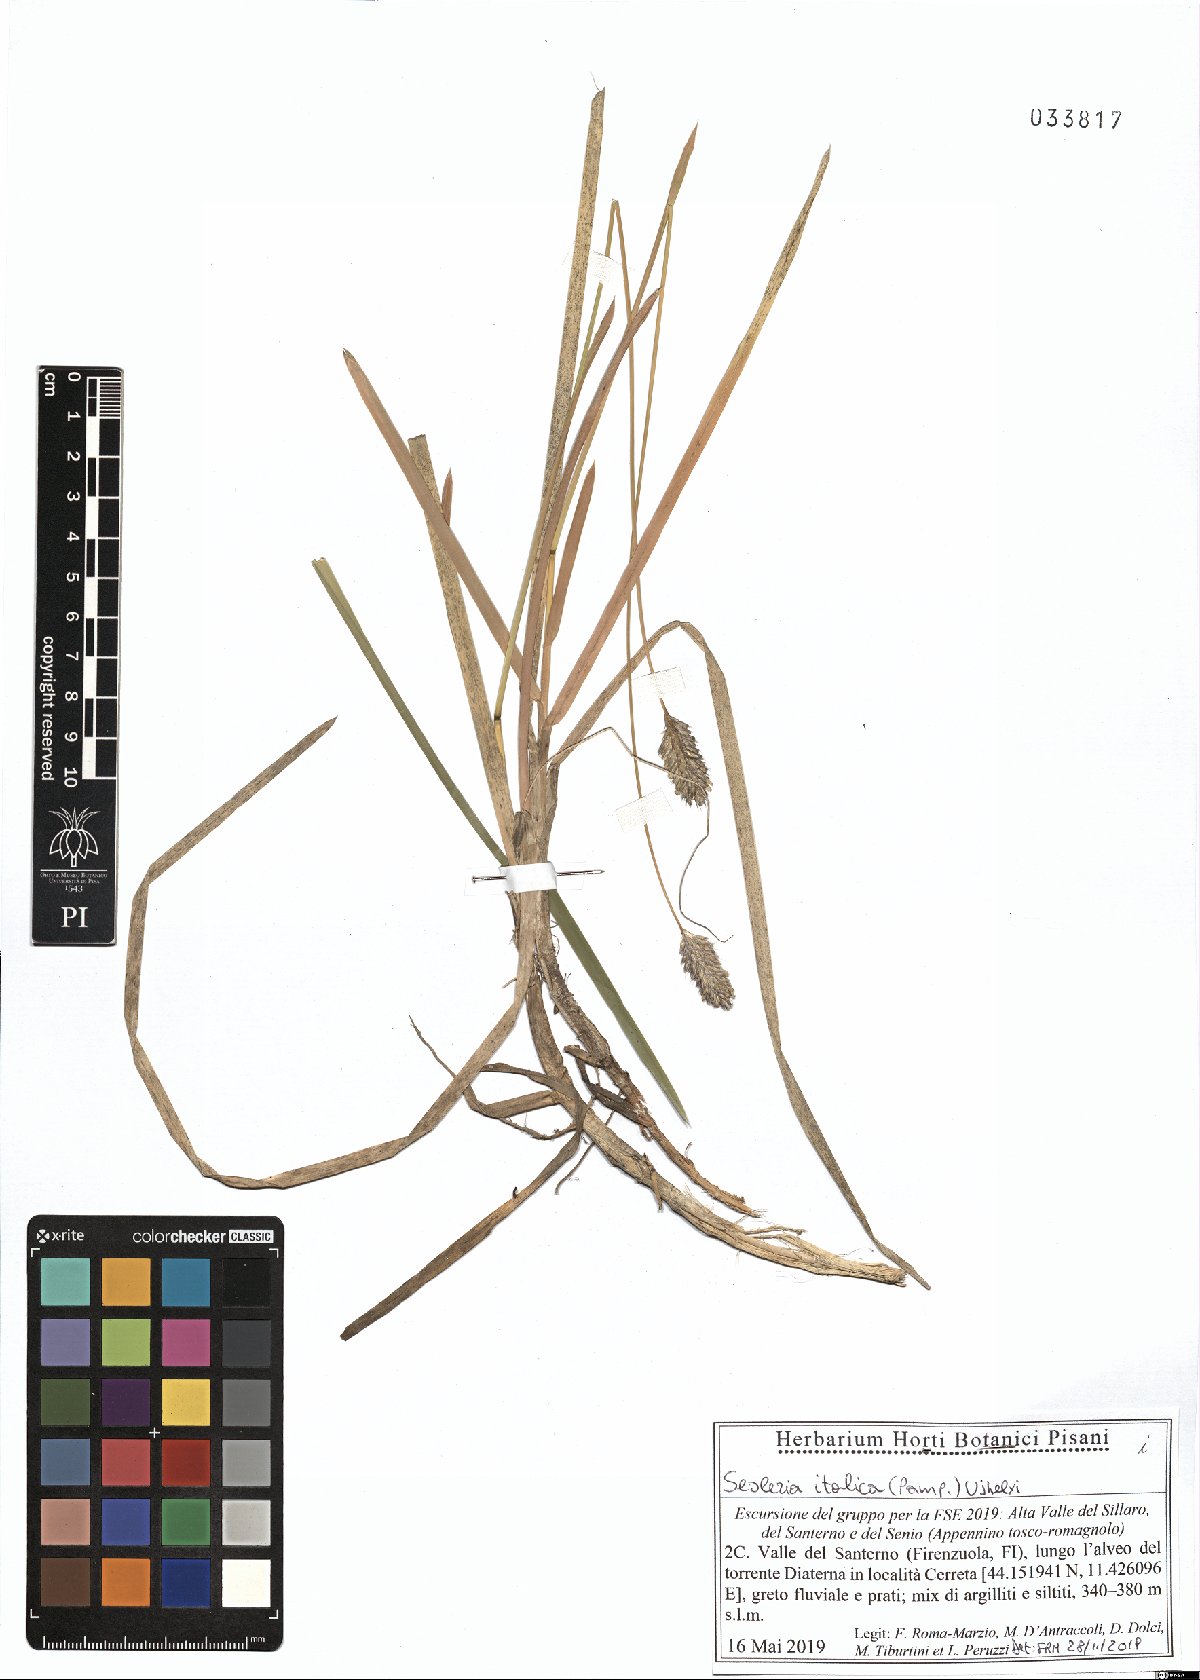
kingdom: Plantae
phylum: Tracheophyta
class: Liliopsida
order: Poales
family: Poaceae
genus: Sesleria
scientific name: Sesleria italica
